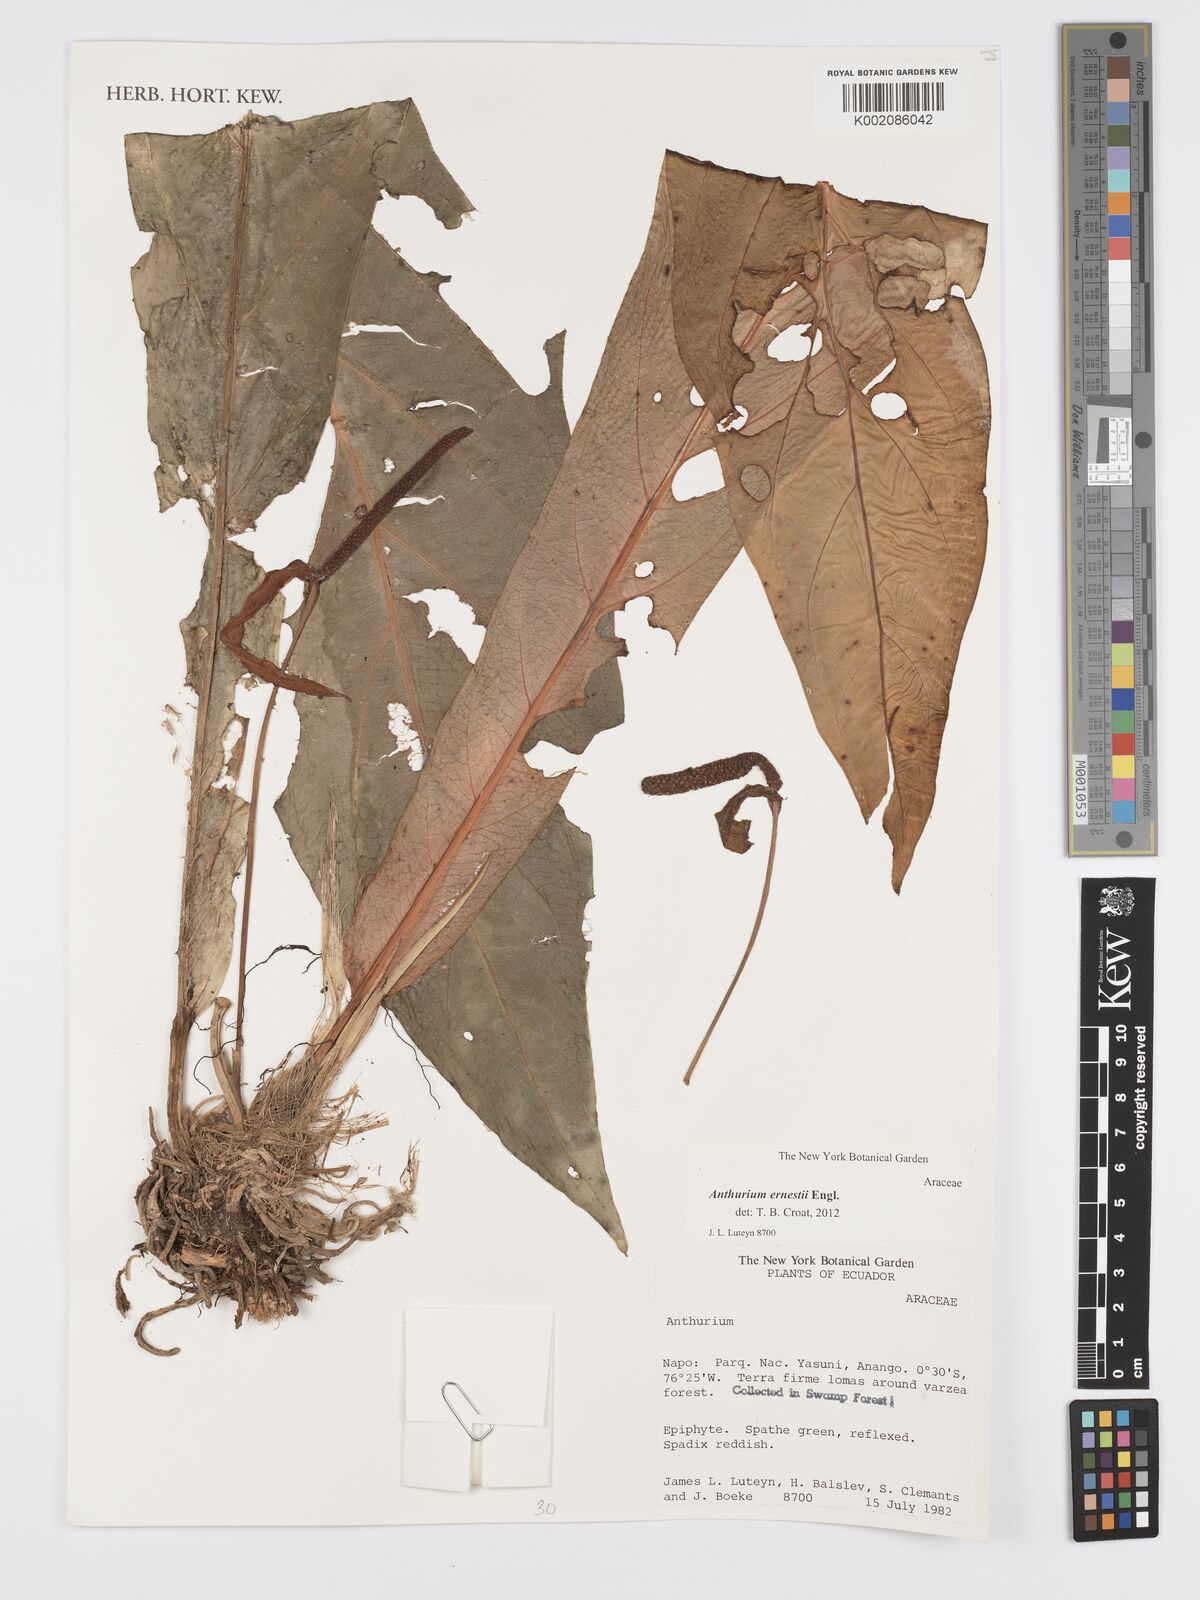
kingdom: Plantae
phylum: Tracheophyta
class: Liliopsida
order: Alismatales
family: Araceae
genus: Anthurium
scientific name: Anthurium ernesti
